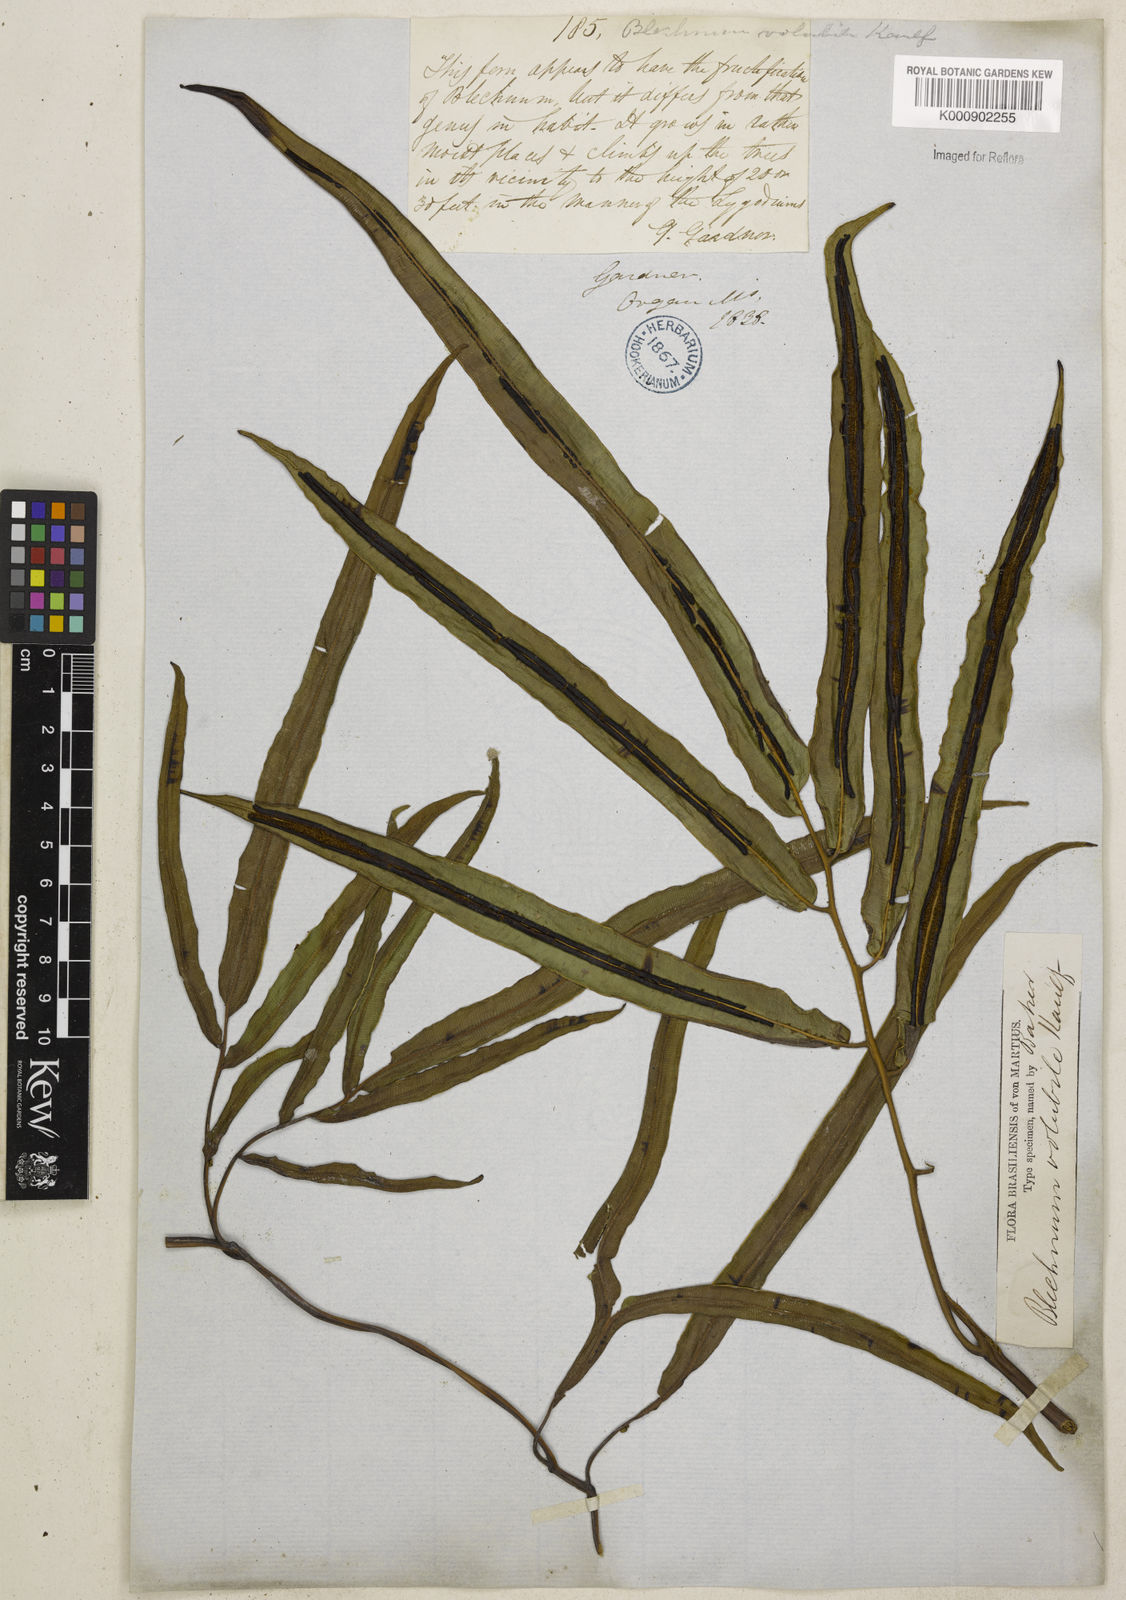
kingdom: Plantae
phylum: Tracheophyta
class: Polypodiopsida
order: Polypodiales
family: Blechnaceae
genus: Salpichlaena
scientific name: Salpichlaena volubilis
